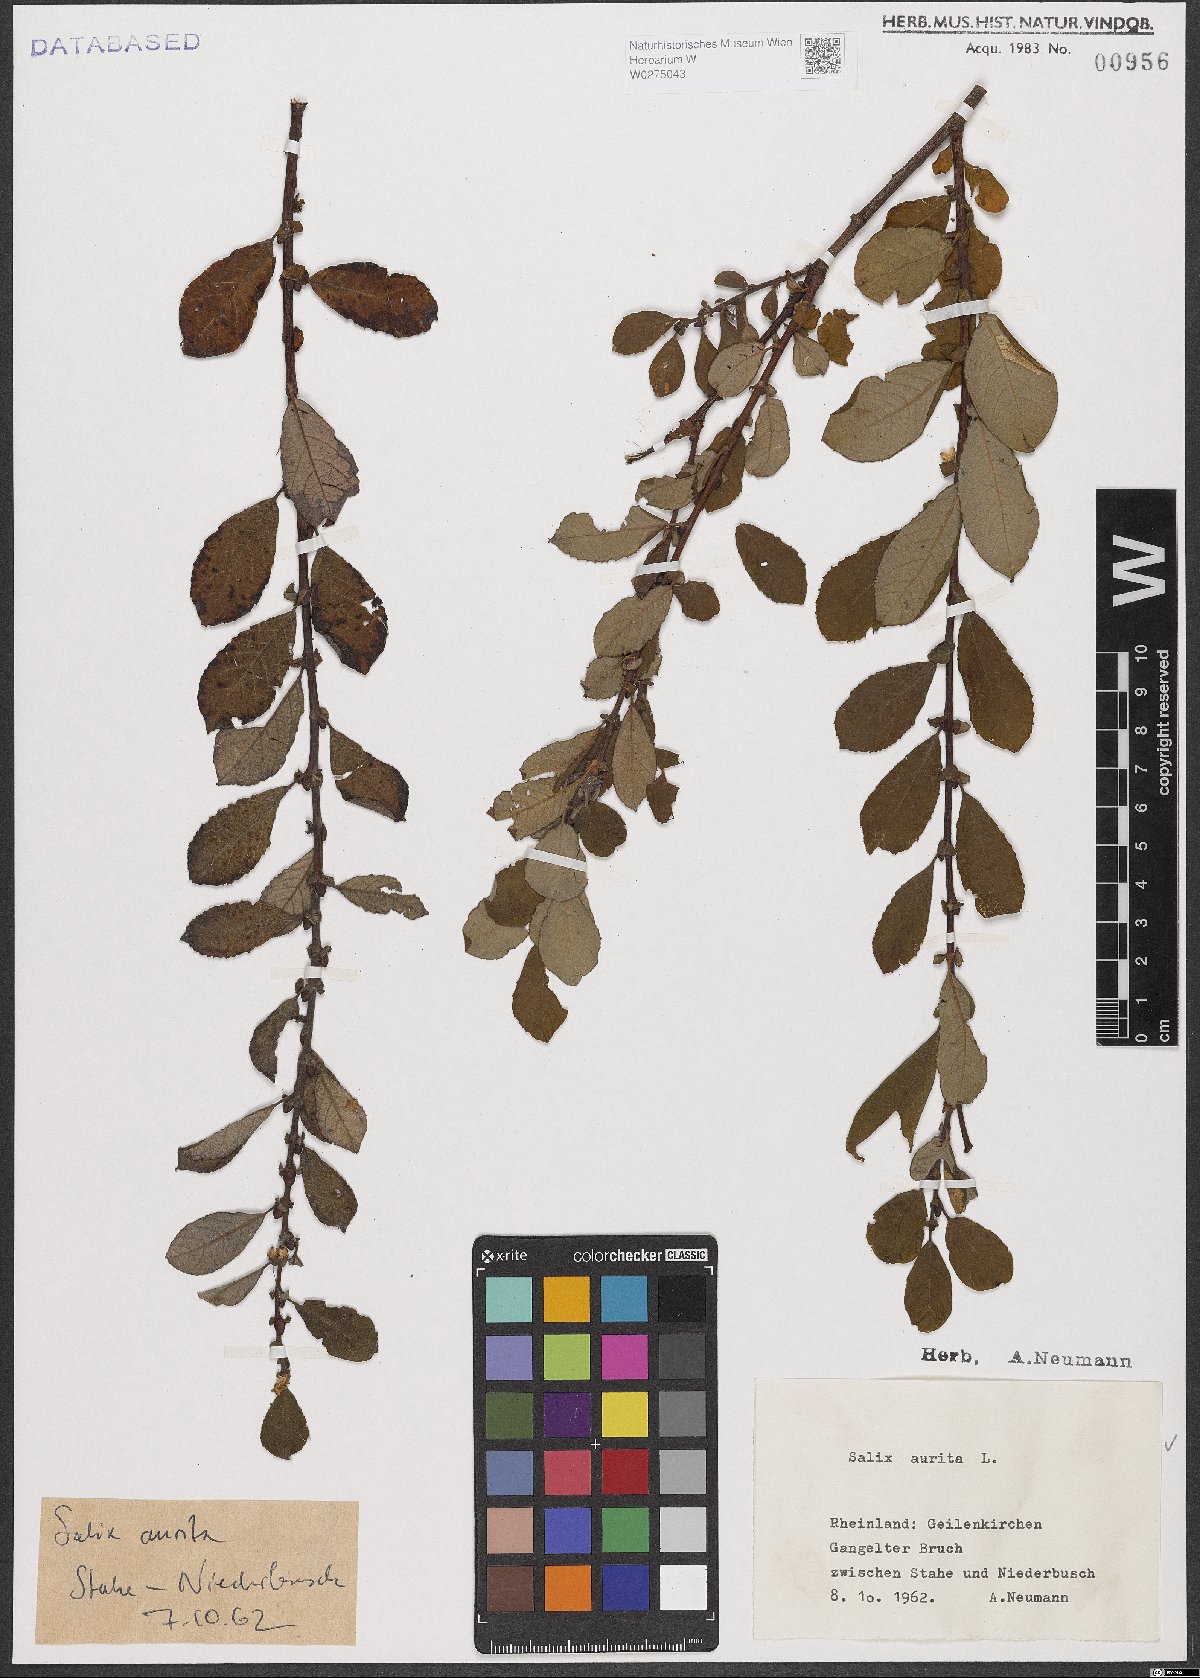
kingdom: Plantae
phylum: Tracheophyta
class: Magnoliopsida
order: Malpighiales
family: Salicaceae
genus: Salix
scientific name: Salix aurita
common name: Eared willow
